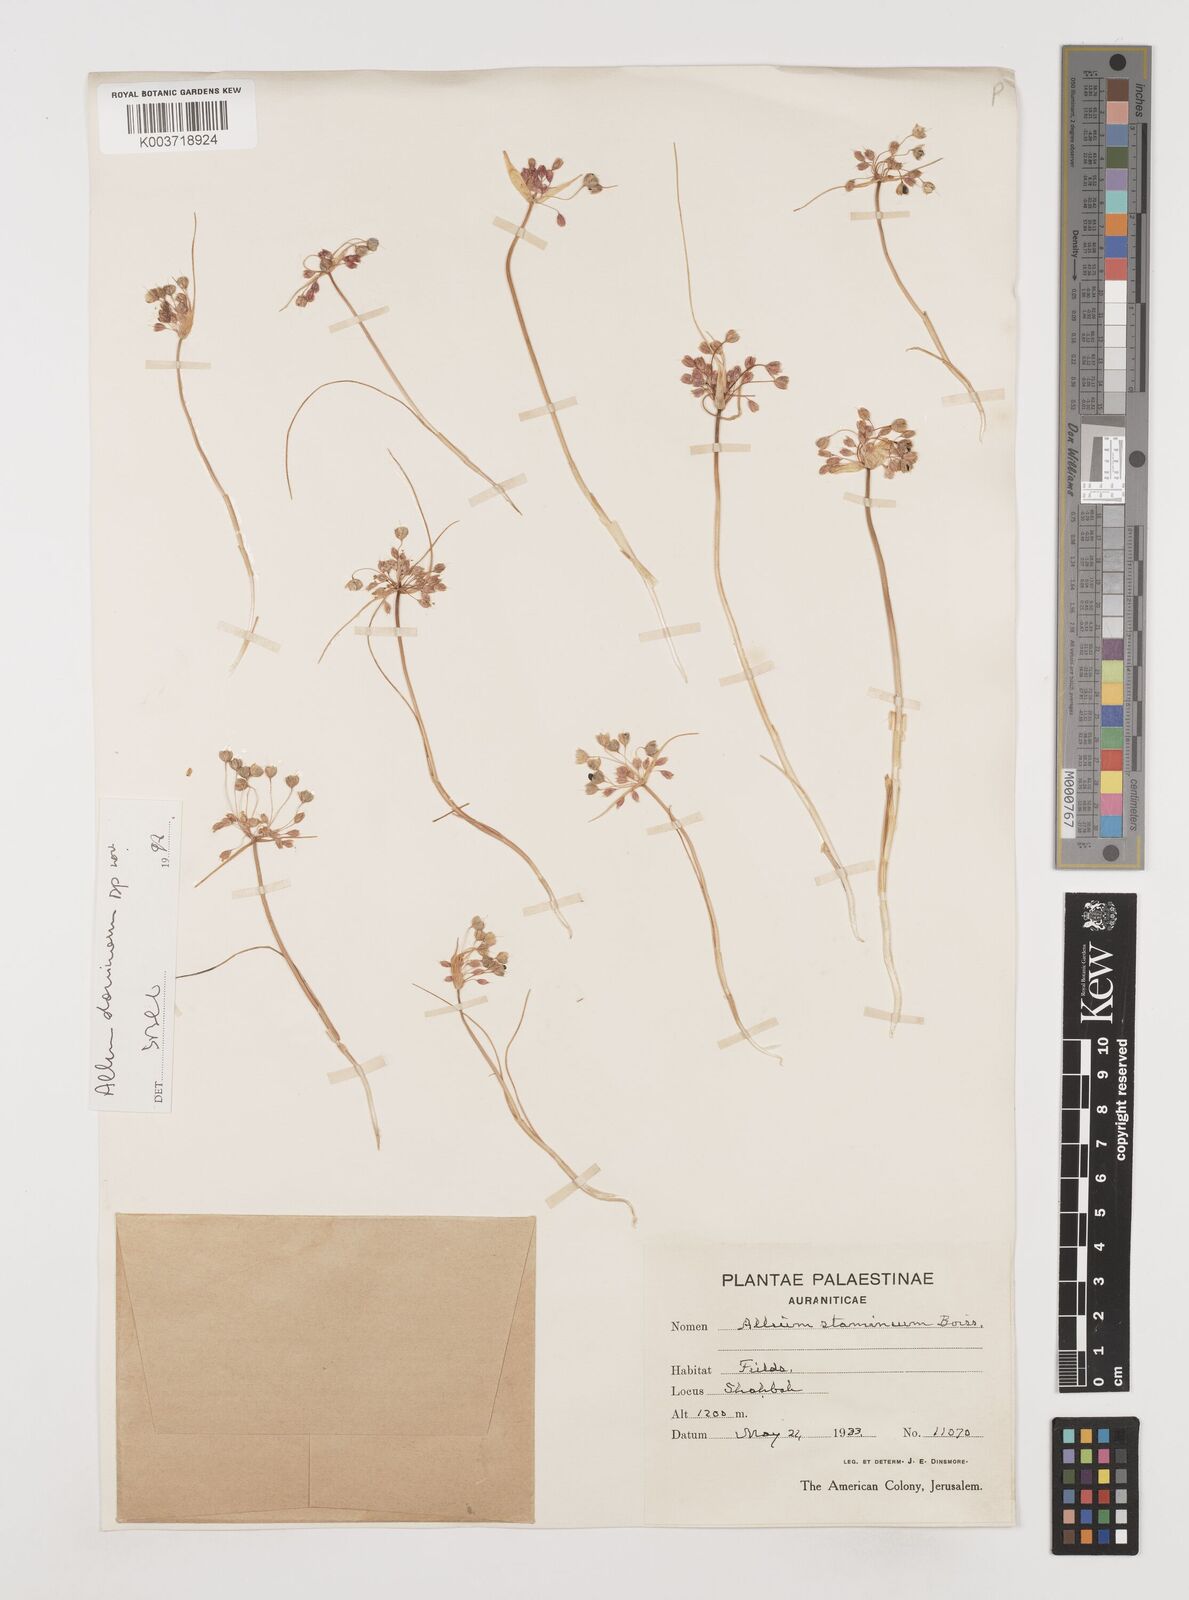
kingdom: Plantae
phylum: Tracheophyta
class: Liliopsida
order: Asparagales
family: Amaryllidaceae
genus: Allium
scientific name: Allium stamineum
